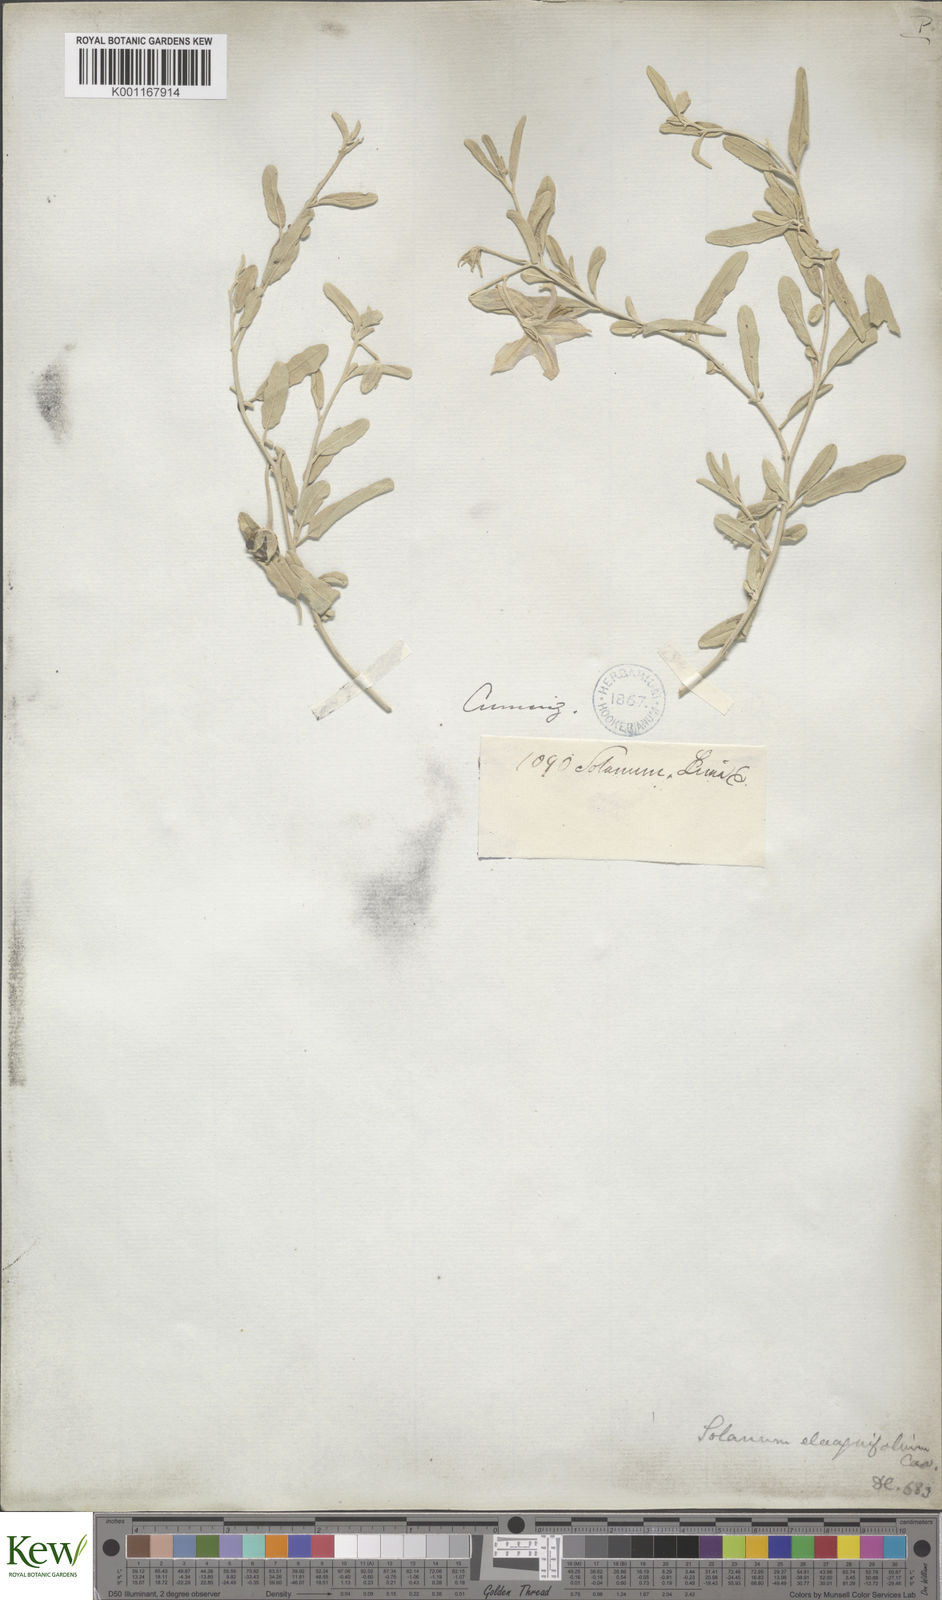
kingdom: Plantae
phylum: Tracheophyta
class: Magnoliopsida
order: Solanales
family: Solanaceae
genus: Solanum
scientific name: Solanum elaeagnifolium
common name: Silverleaf nightshade
